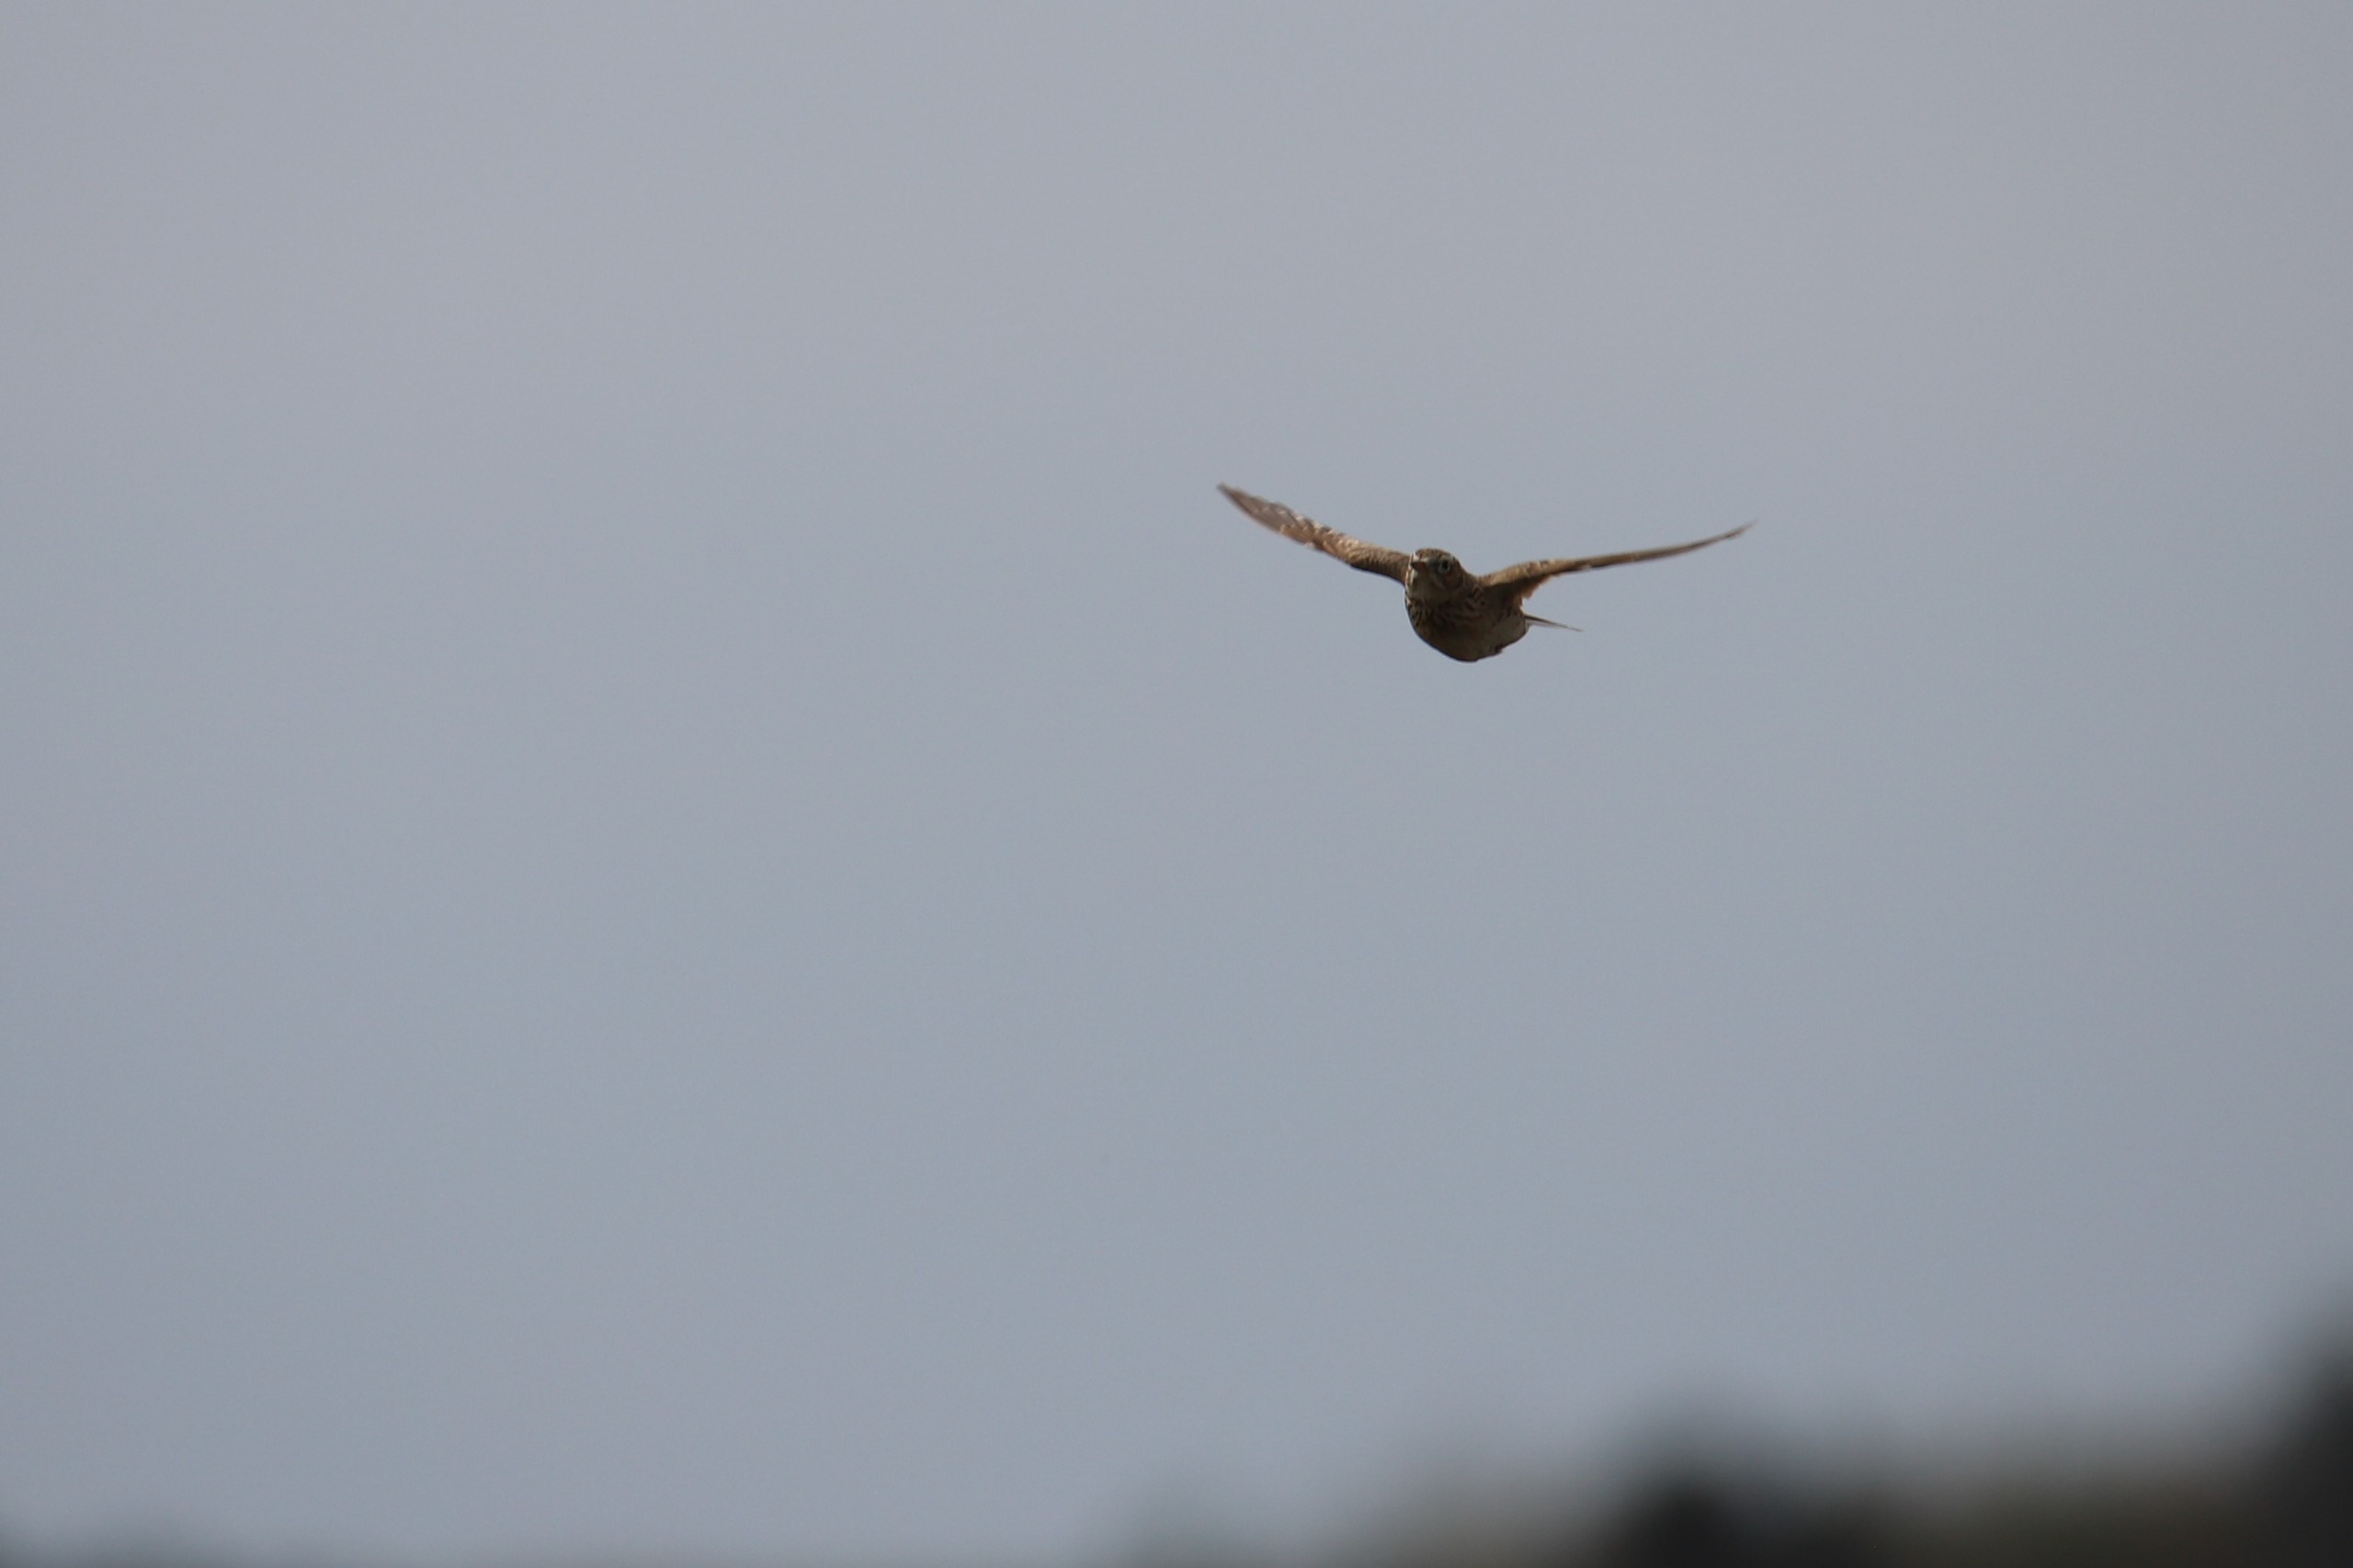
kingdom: Animalia
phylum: Chordata
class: Aves
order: Passeriformes
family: Alaudidae
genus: Alauda
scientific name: Alauda arvensis
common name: Sanglærke
